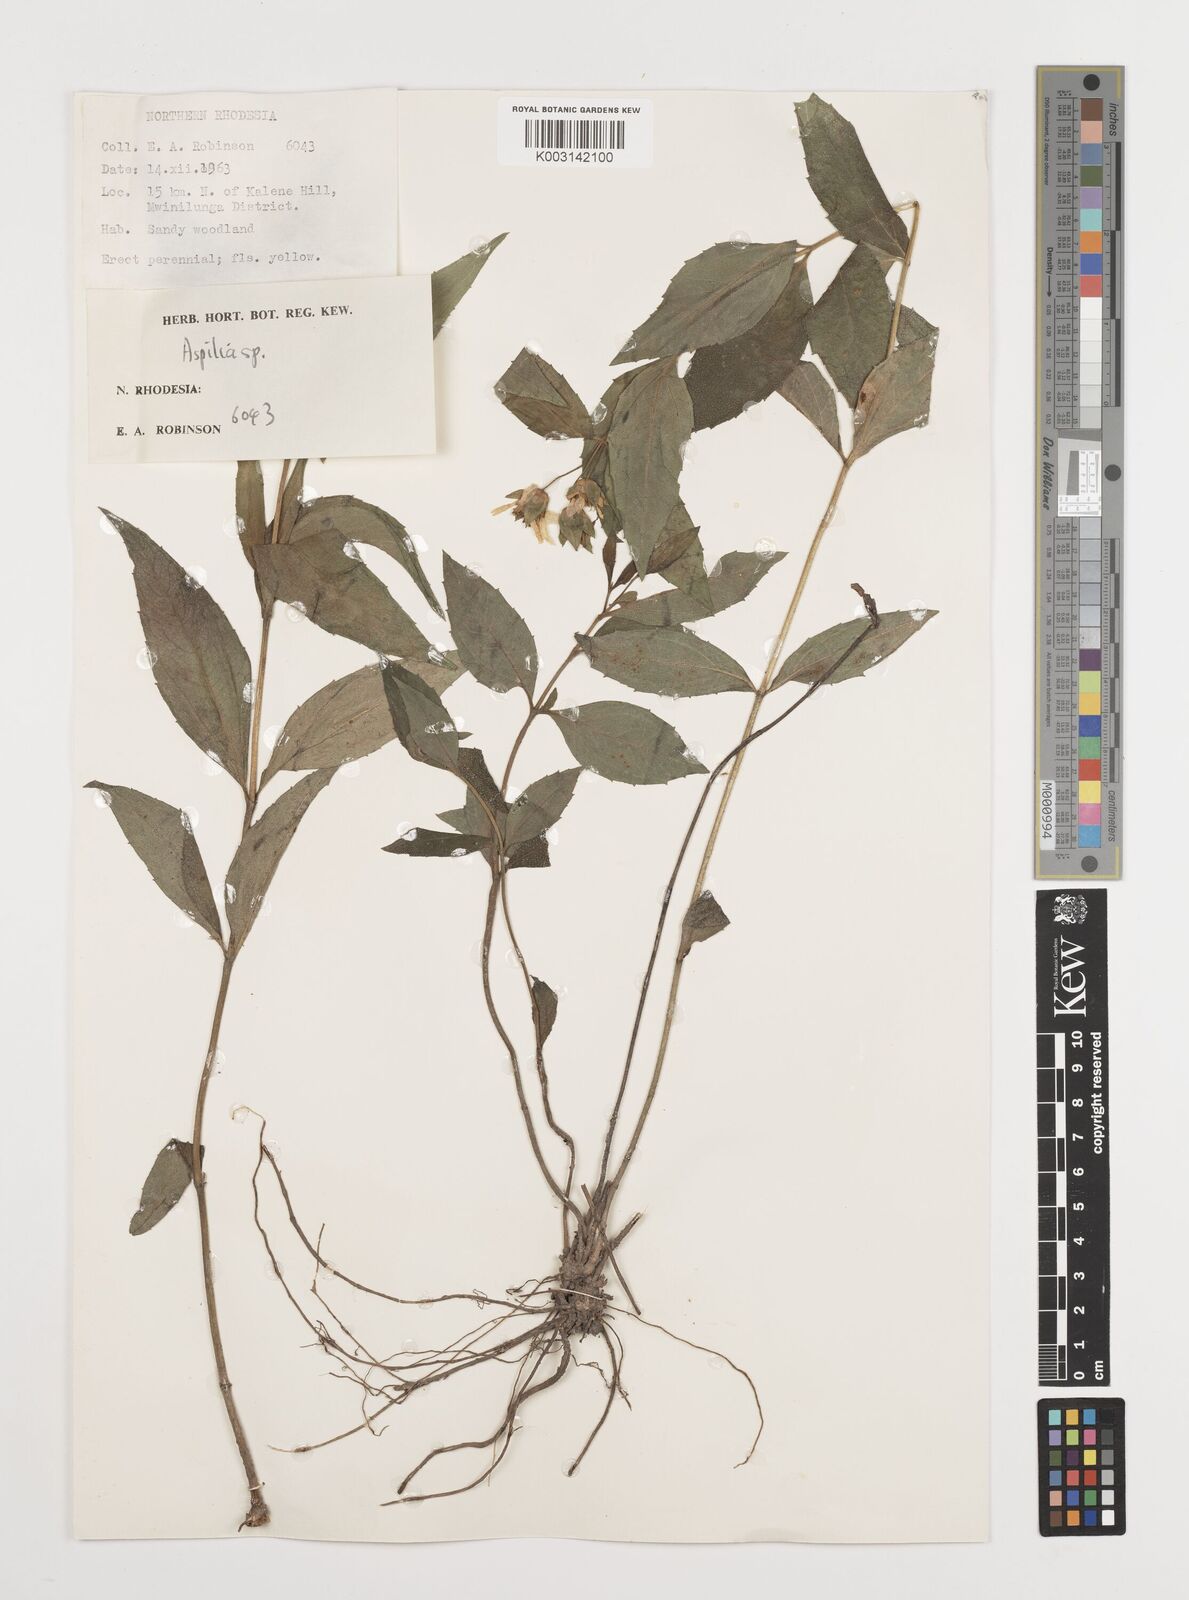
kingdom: Plantae
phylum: Tracheophyta
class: Magnoliopsida
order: Asterales
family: Asteraceae
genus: Aspilia
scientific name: Aspilia angolensis
